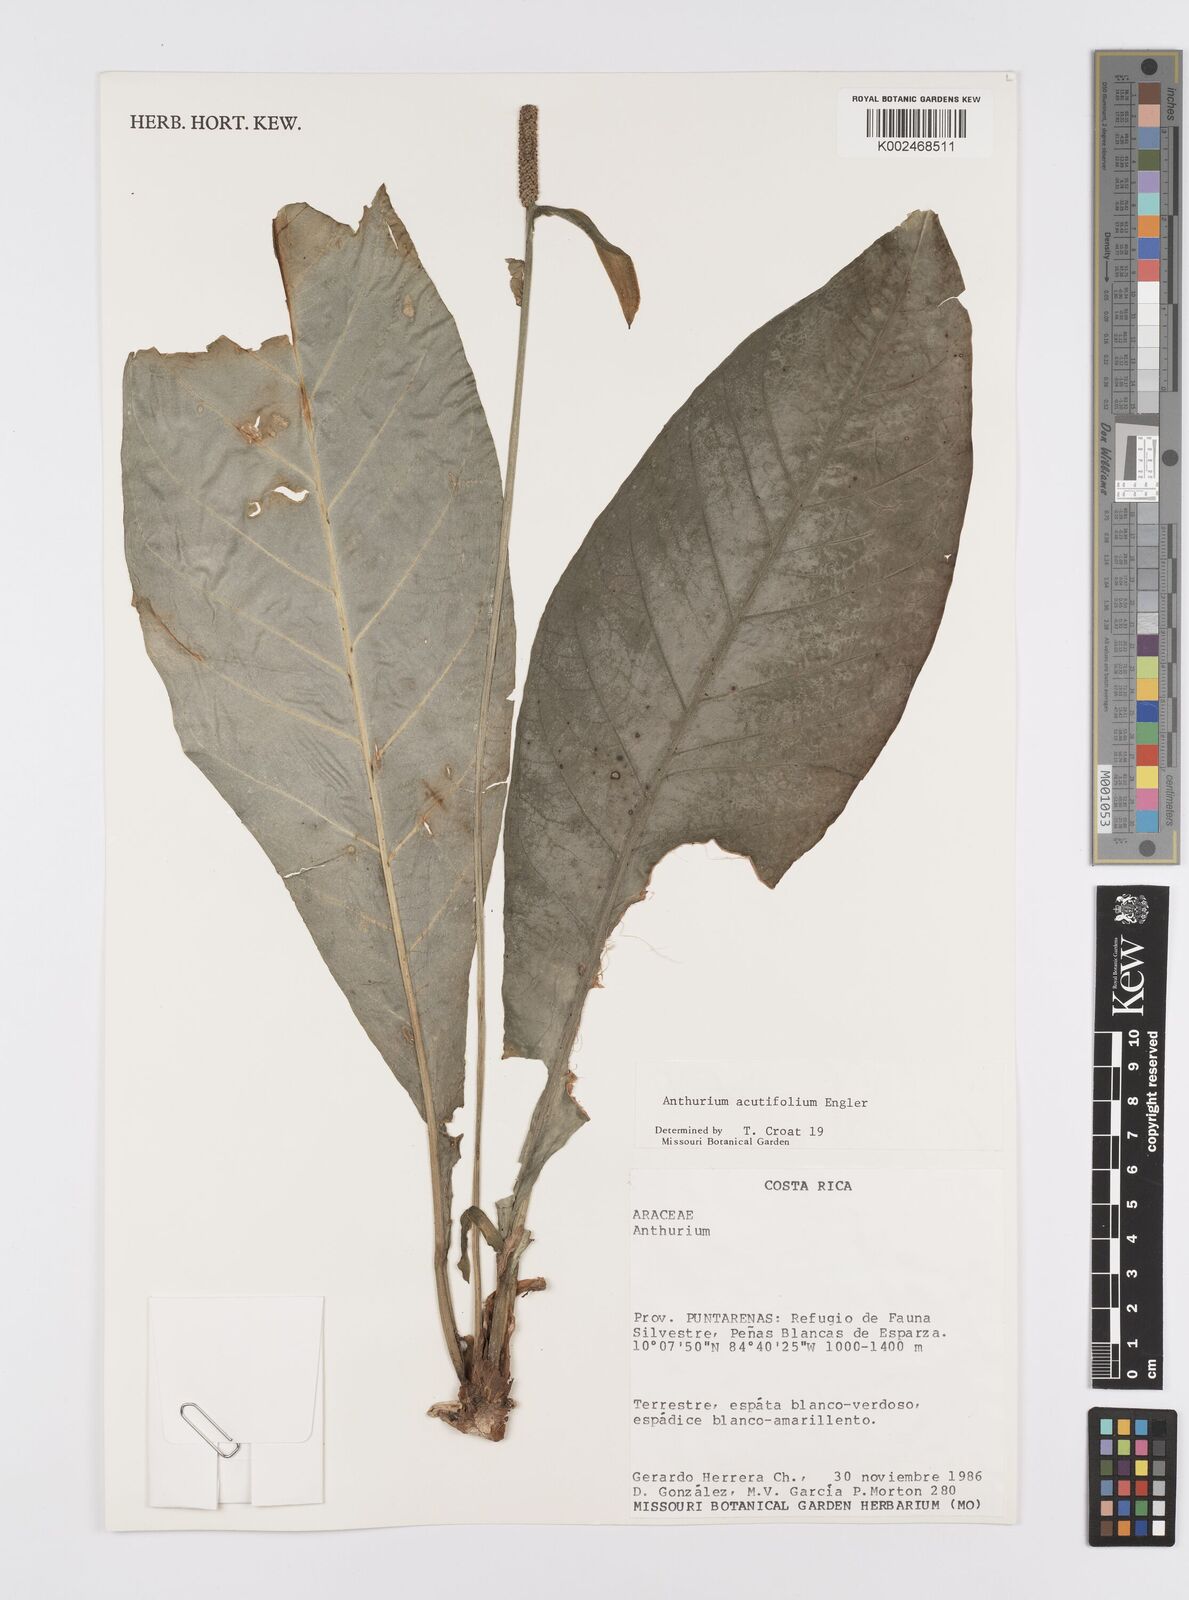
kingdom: Plantae
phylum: Tracheophyta
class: Liliopsida
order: Alismatales
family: Araceae
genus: Anthurium
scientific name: Anthurium acutifolium
